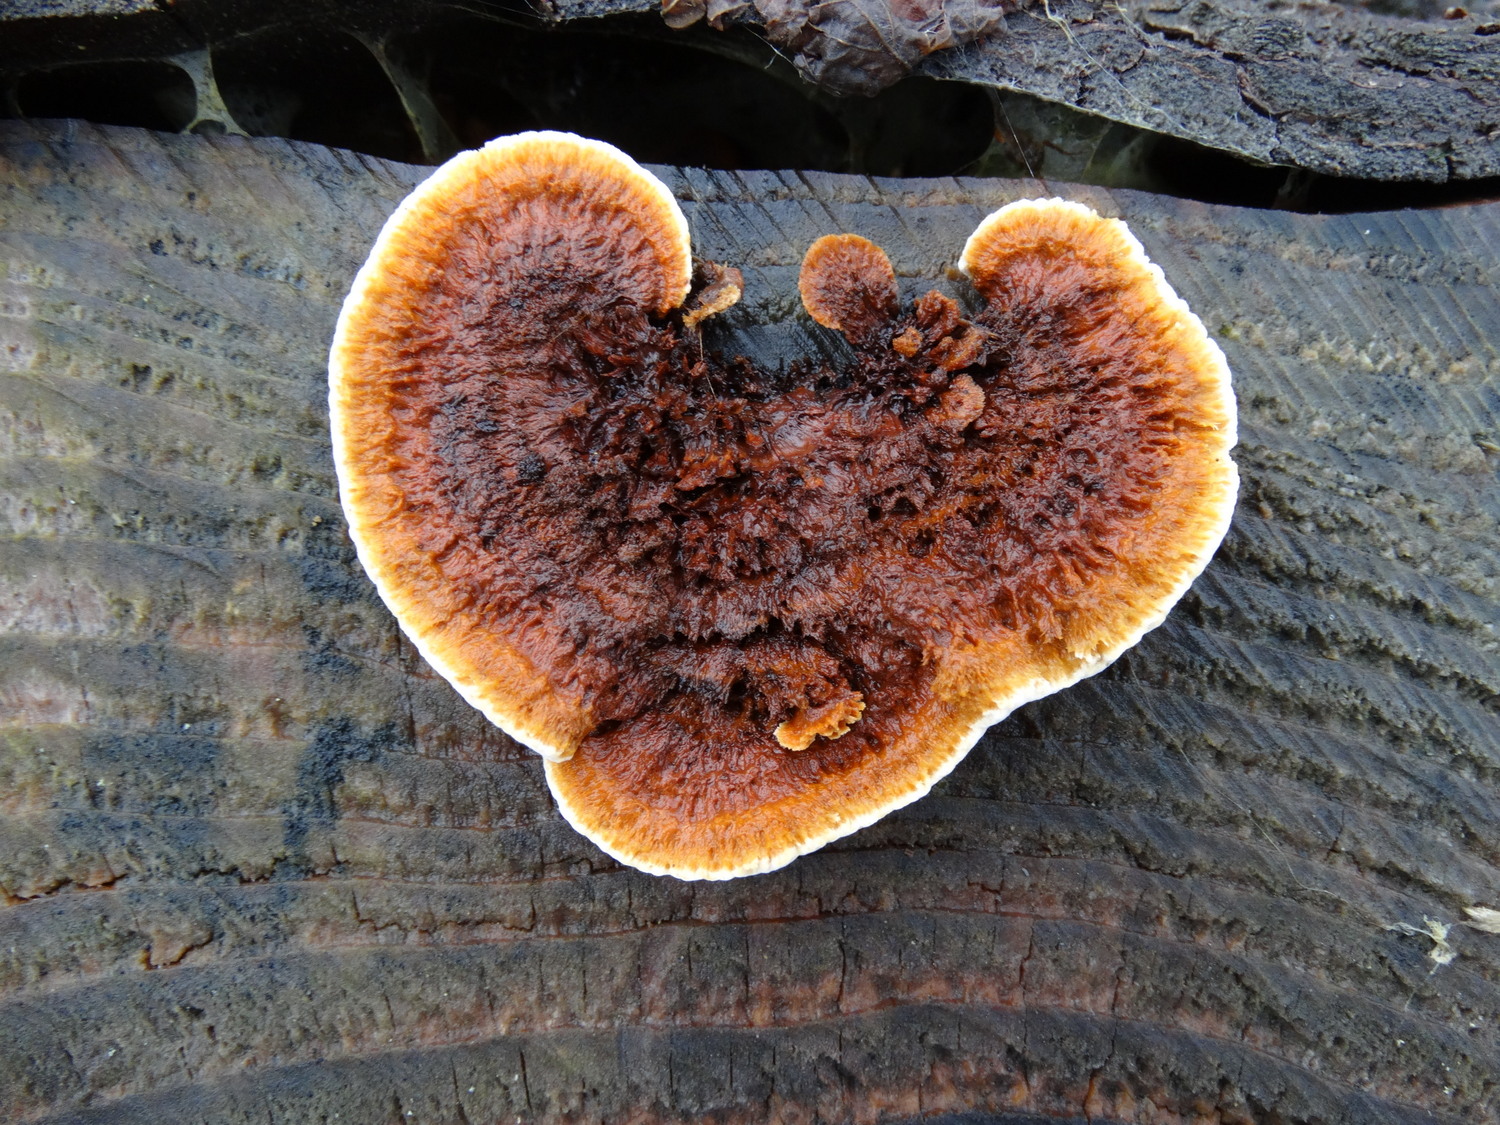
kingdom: Fungi
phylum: Basidiomycota
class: Agaricomycetes
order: Gloeophyllales
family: Gloeophyllaceae
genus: Gloeophyllum
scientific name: Gloeophyllum sepiarium
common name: fyrre-korkhat
